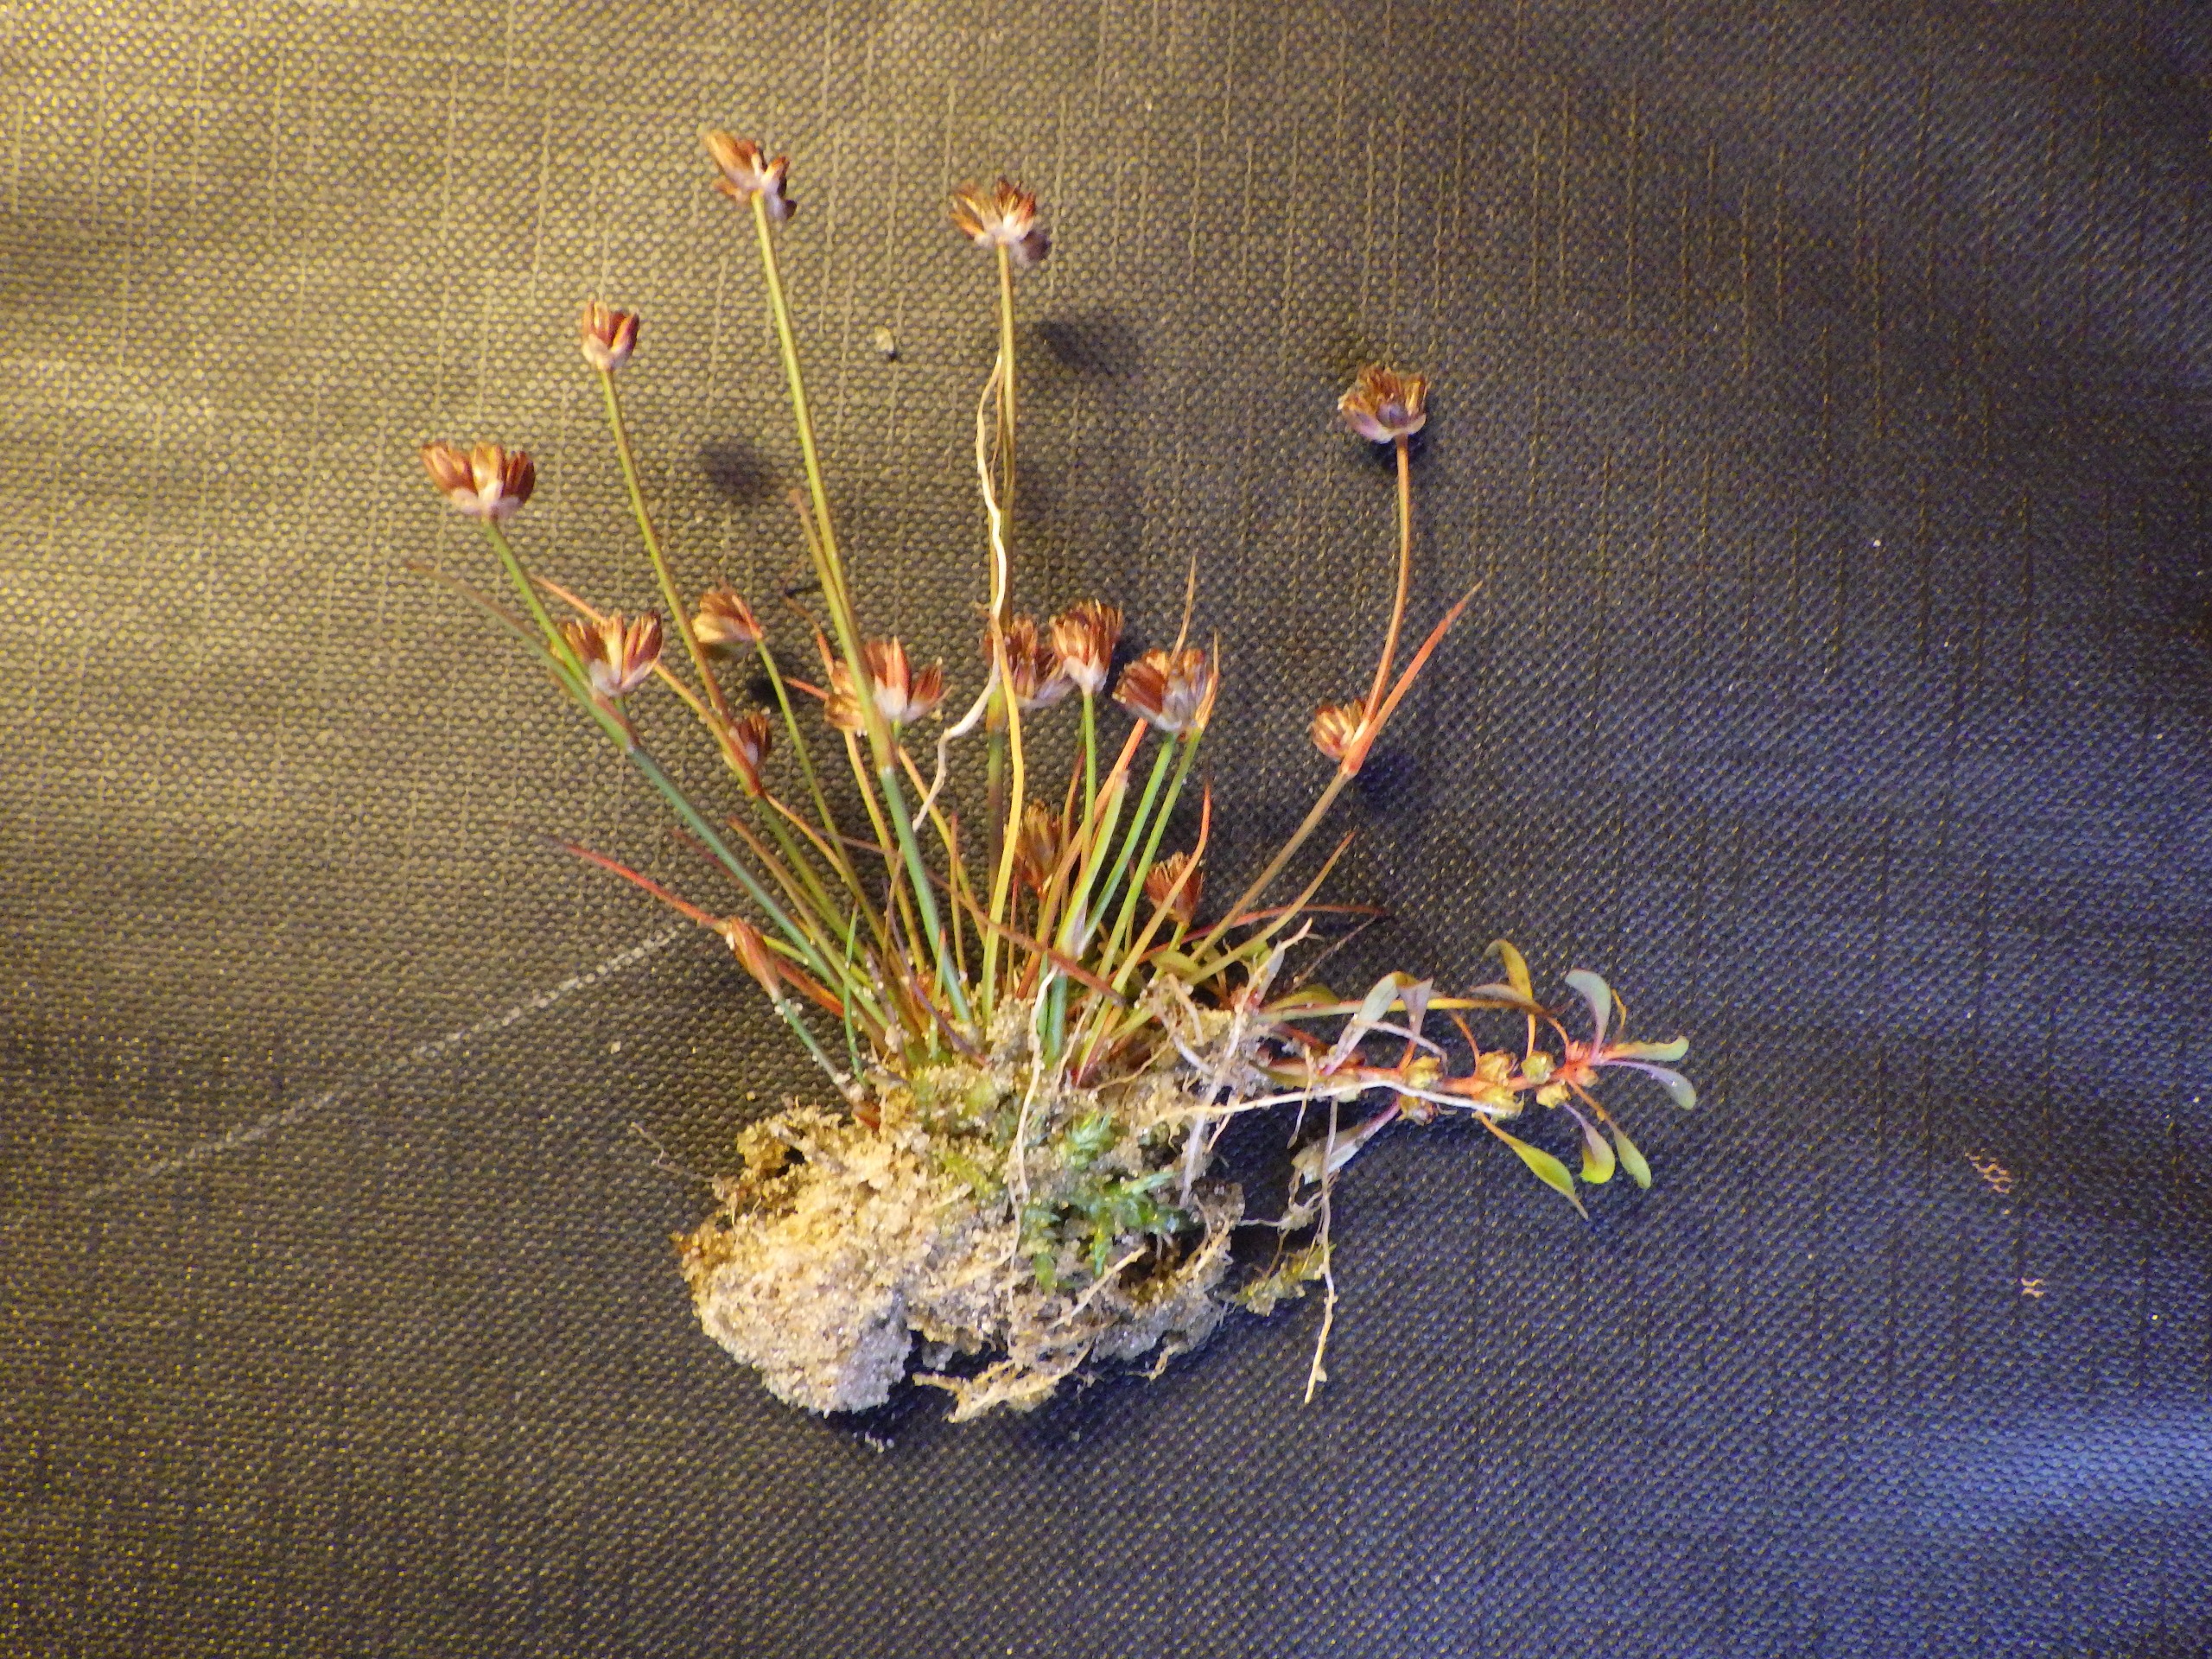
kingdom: Plantae
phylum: Tracheophyta
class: Liliopsida
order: Poales
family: Juncaceae
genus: Juncus
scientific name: Juncus ranarius
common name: Klæg-siv
